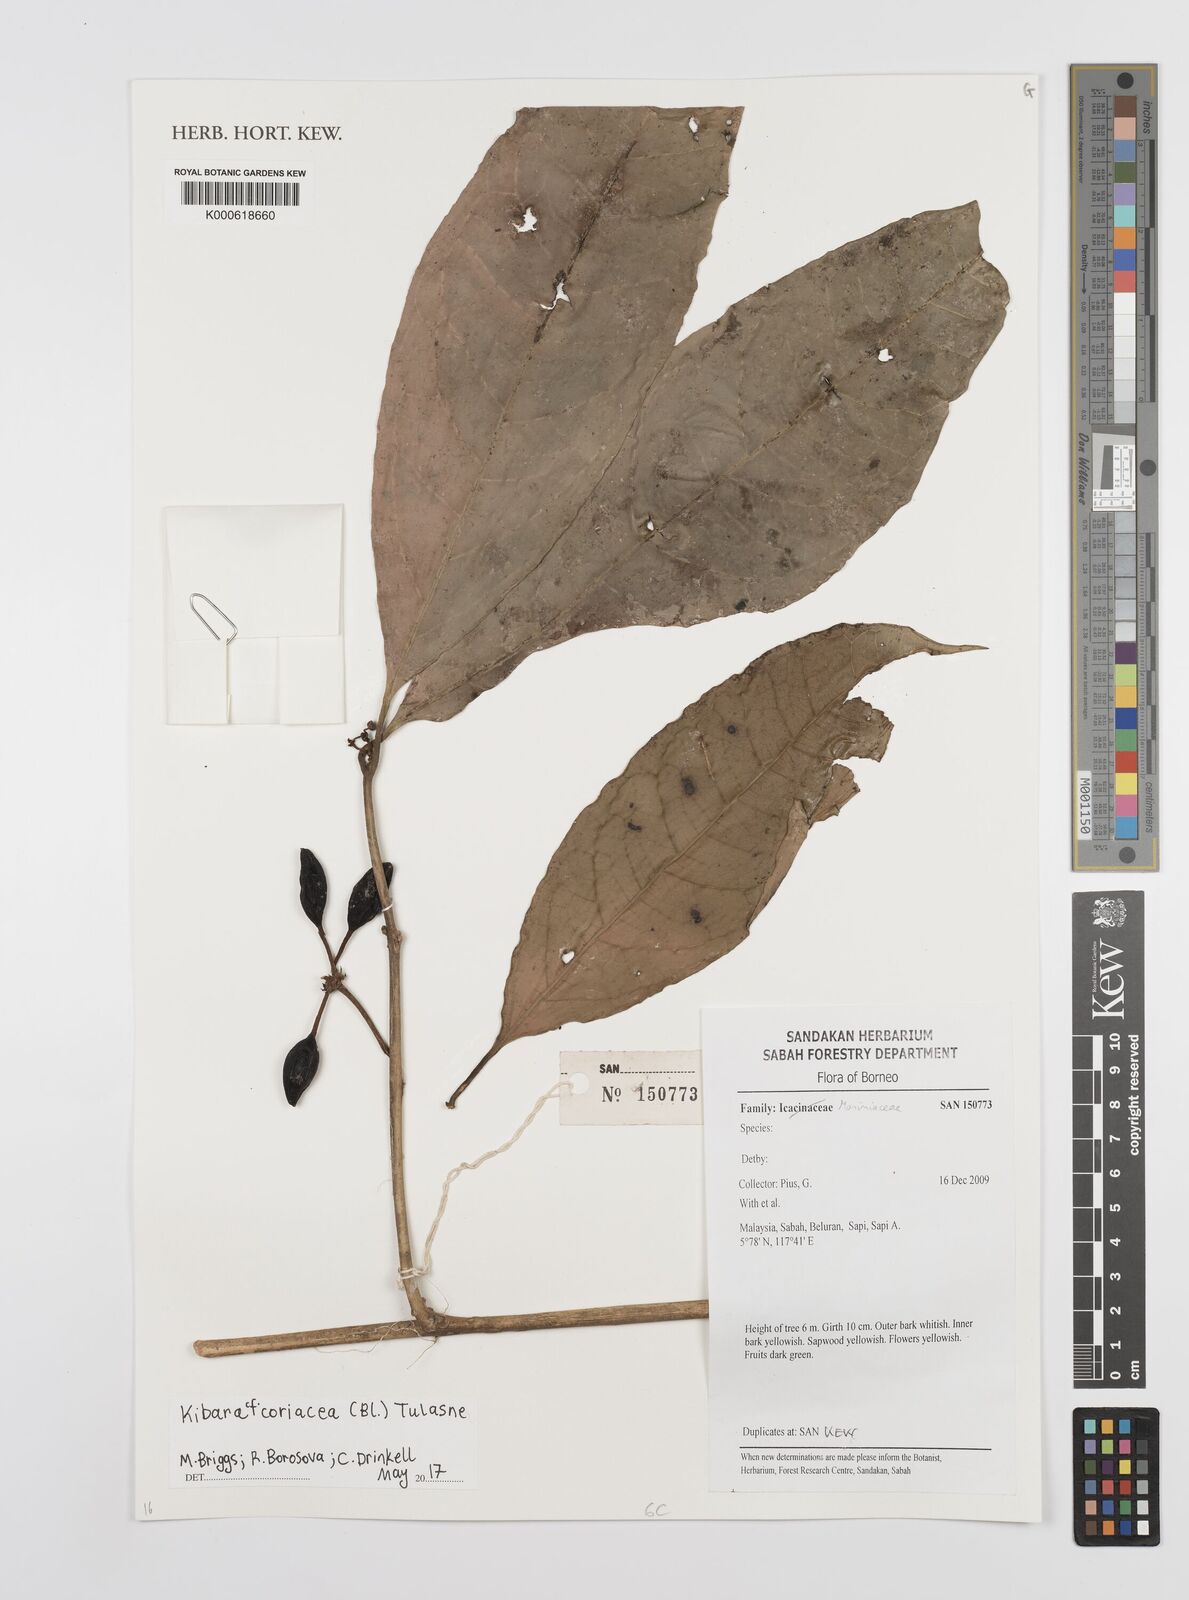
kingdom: Plantae
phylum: Tracheophyta
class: Magnoliopsida
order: Laurales
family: Monimiaceae
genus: Kibara
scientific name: Kibara
